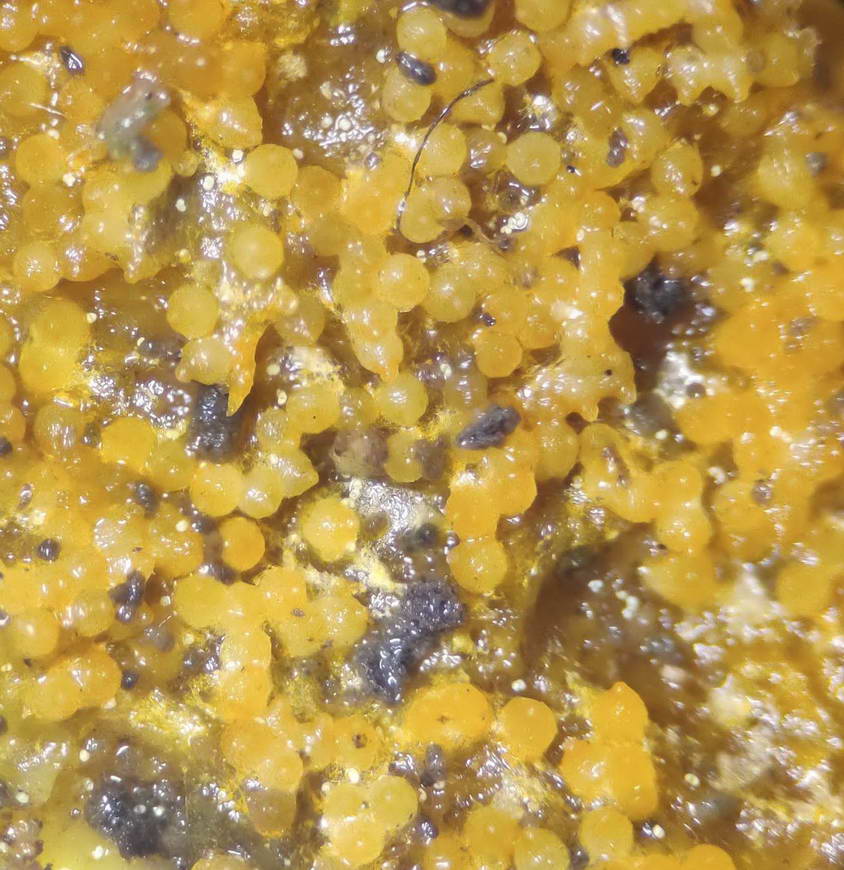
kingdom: Fungi
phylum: Ascomycota
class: Sordariomycetes
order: Hypocreales
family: Hypocreaceae
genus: Hypomyces
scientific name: Hypomyces aurantius
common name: almindelig snylteskorpe
